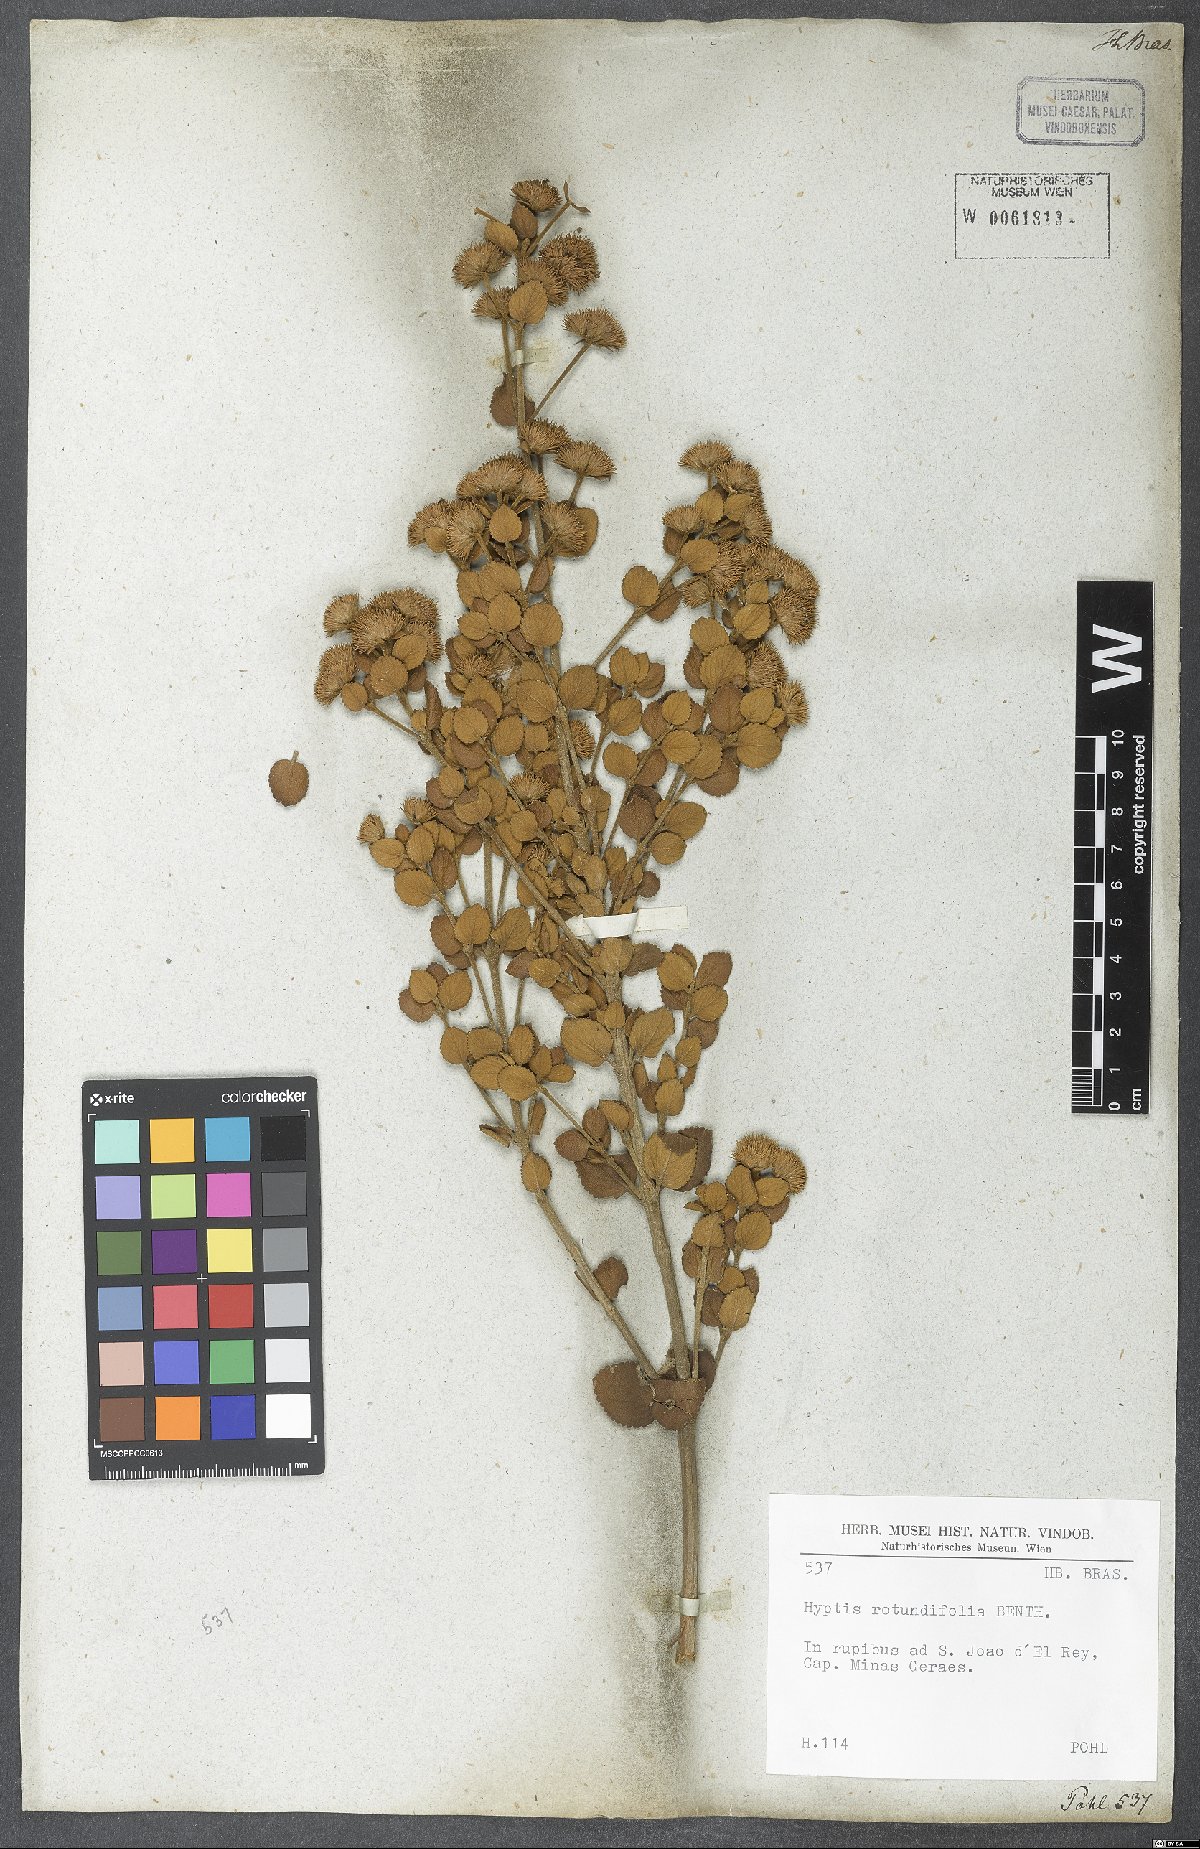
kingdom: Plantae
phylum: Tracheophyta
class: Magnoliopsida
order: Lamiales
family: Lamiaceae
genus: Hyptis
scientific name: Hyptis rotundifolia
